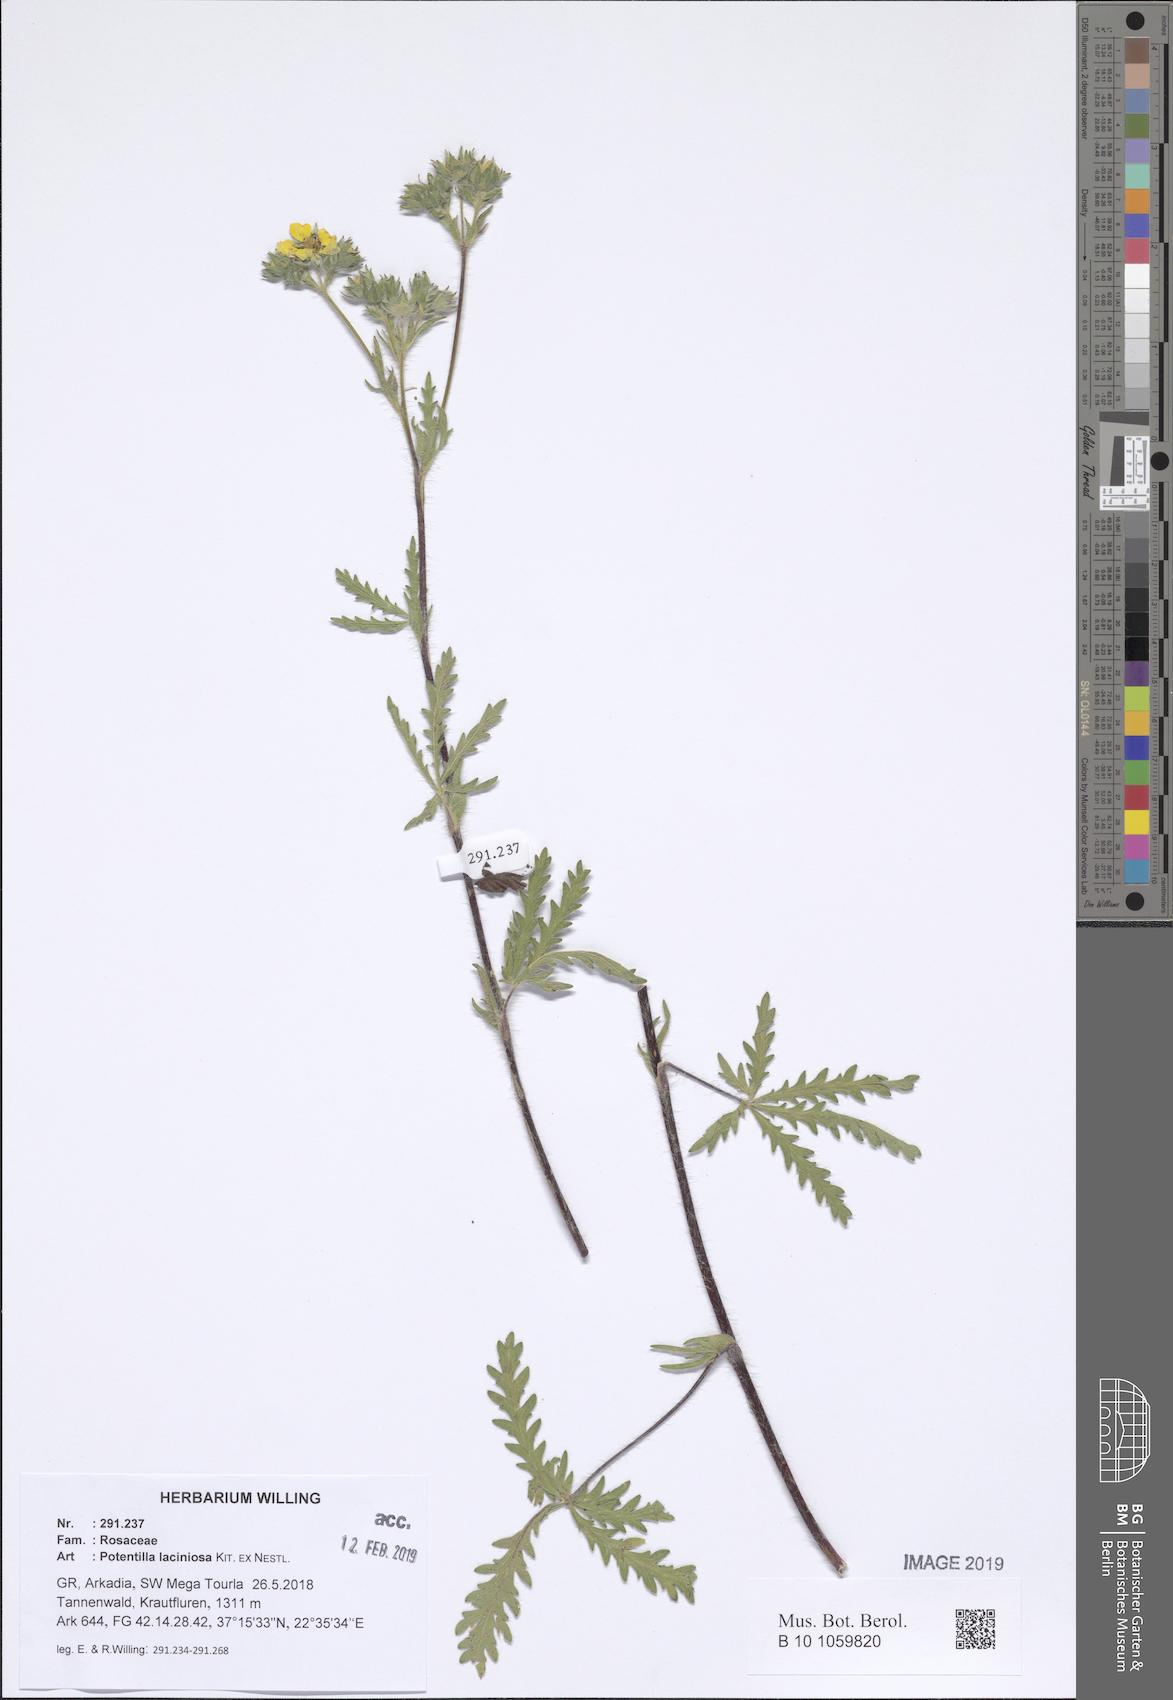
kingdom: Plantae
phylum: Tracheophyta
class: Magnoliopsida
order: Rosales
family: Rosaceae
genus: Potentilla
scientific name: Potentilla recta
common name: Sulphur cinquefoil
